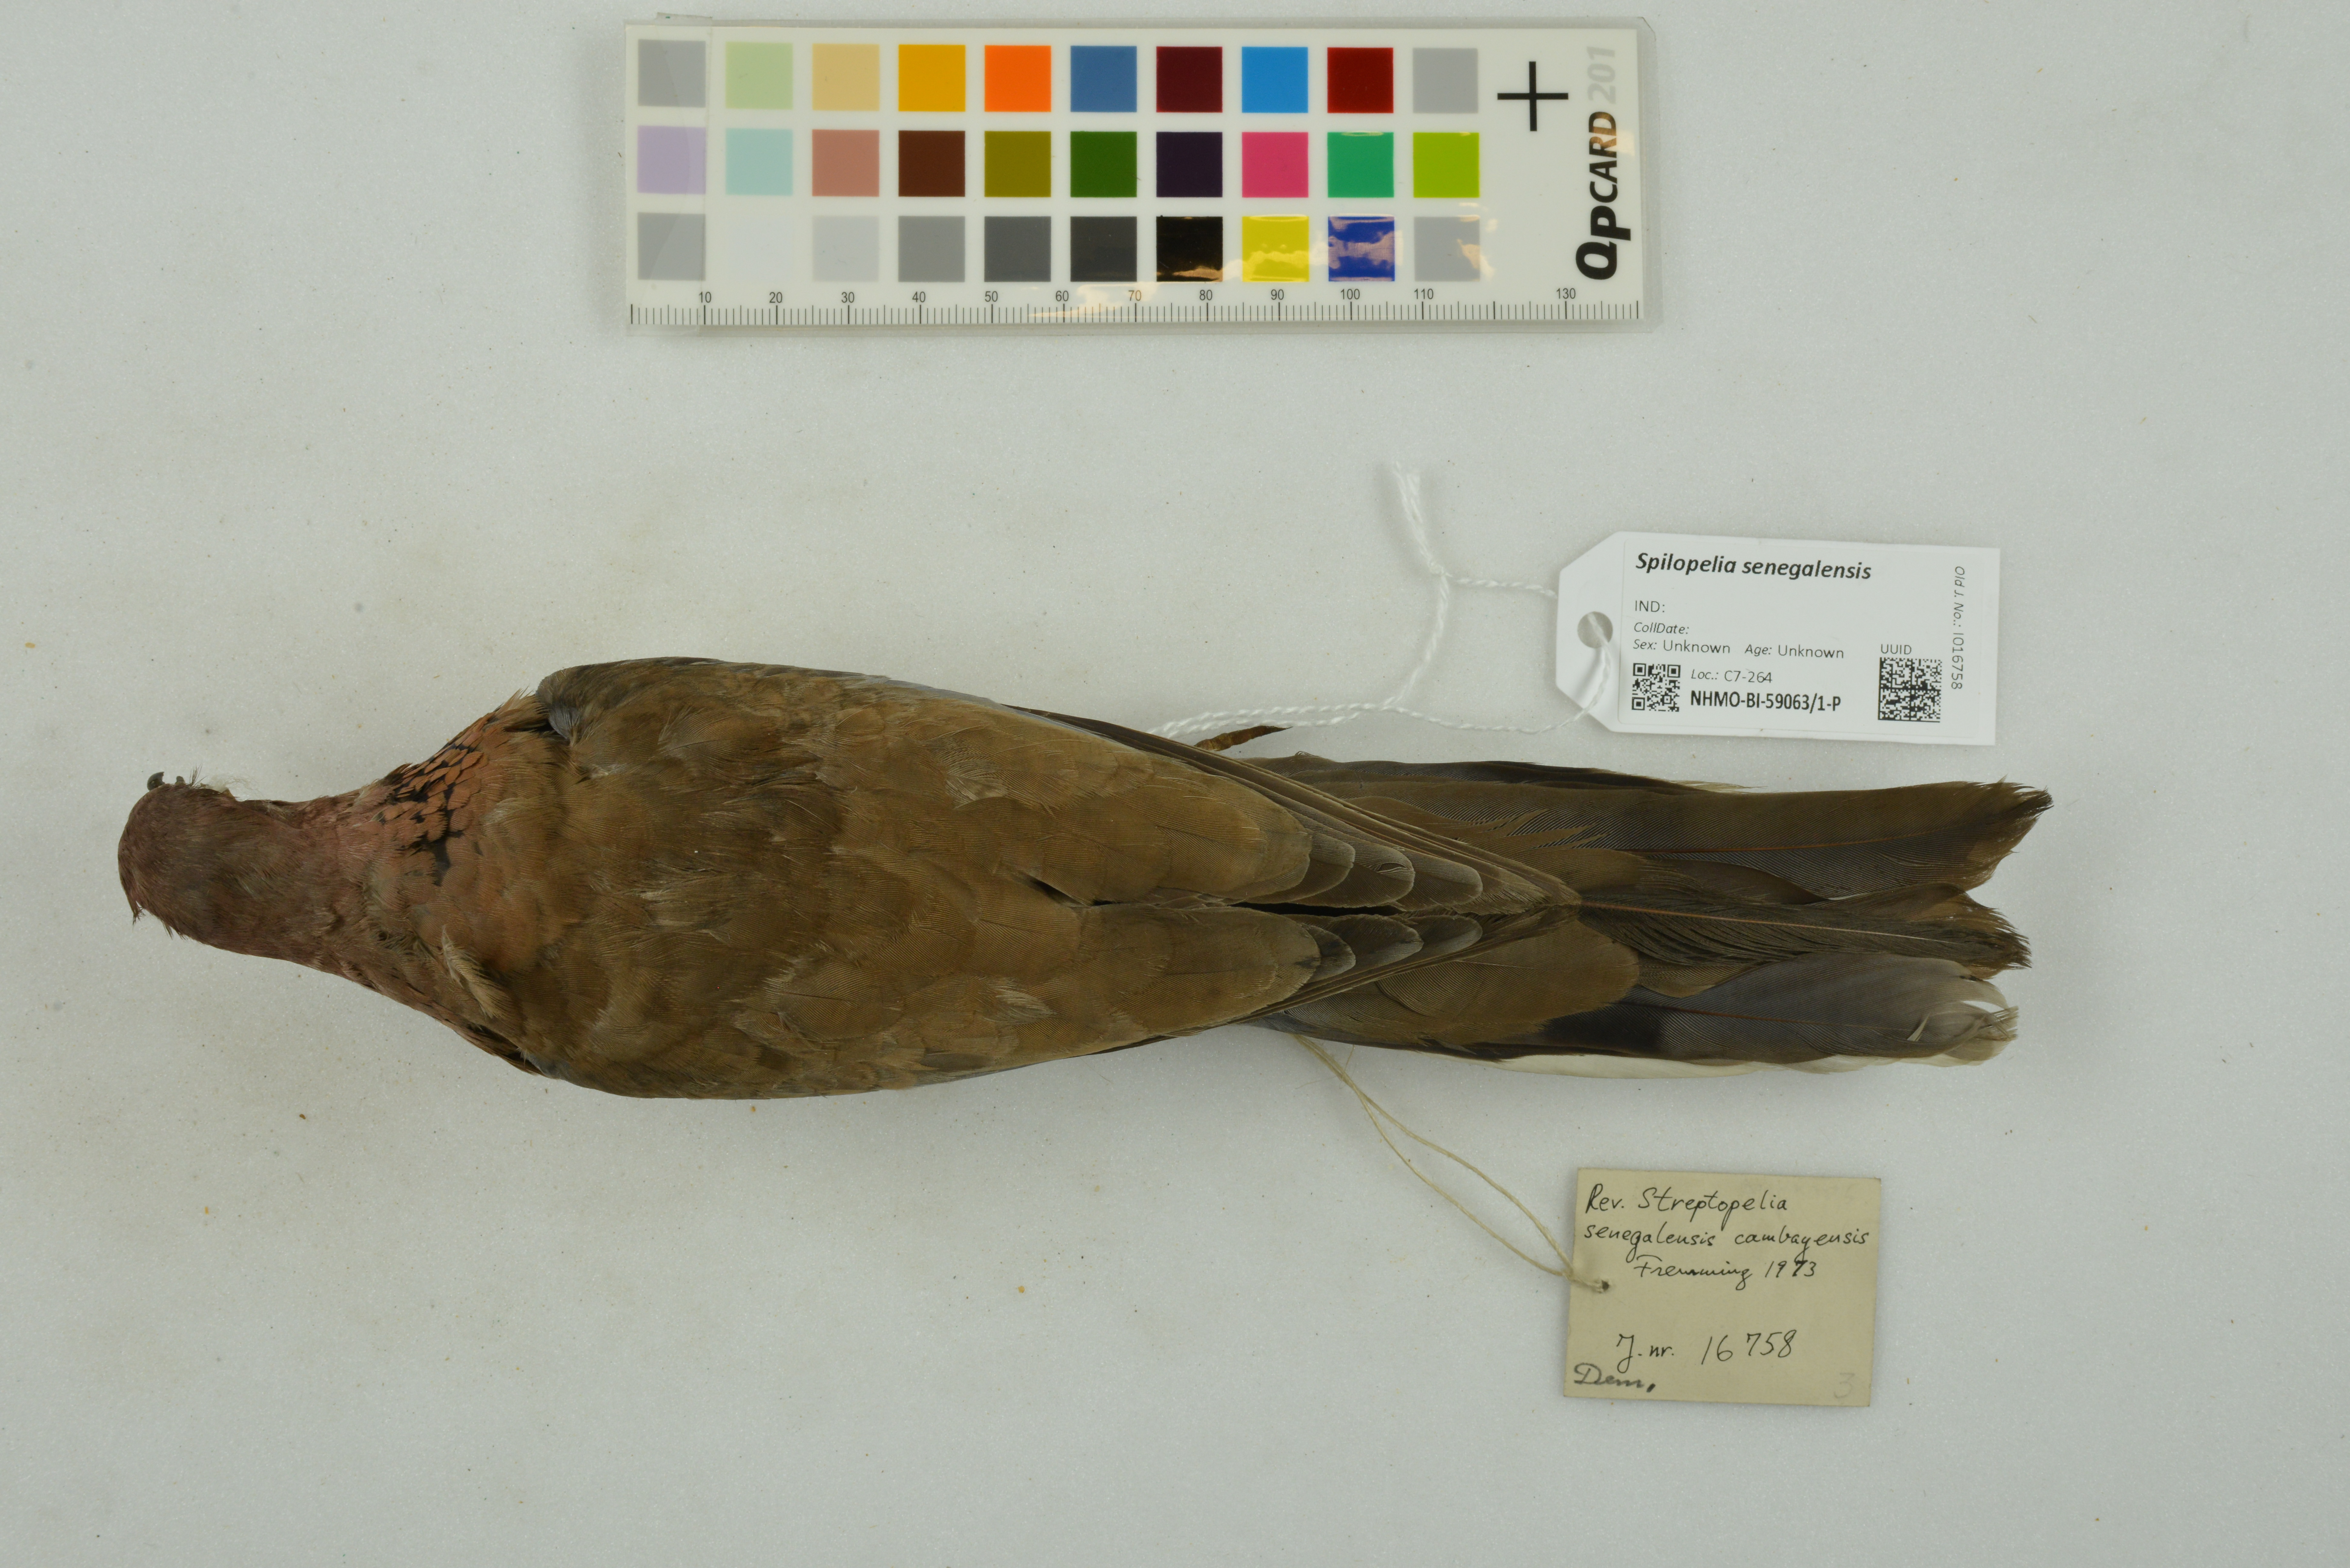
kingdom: Animalia
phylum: Chordata
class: Aves
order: Columbiformes
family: Columbidae
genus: Spilopelia
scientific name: Spilopelia senegalensis
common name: Laughing dove
